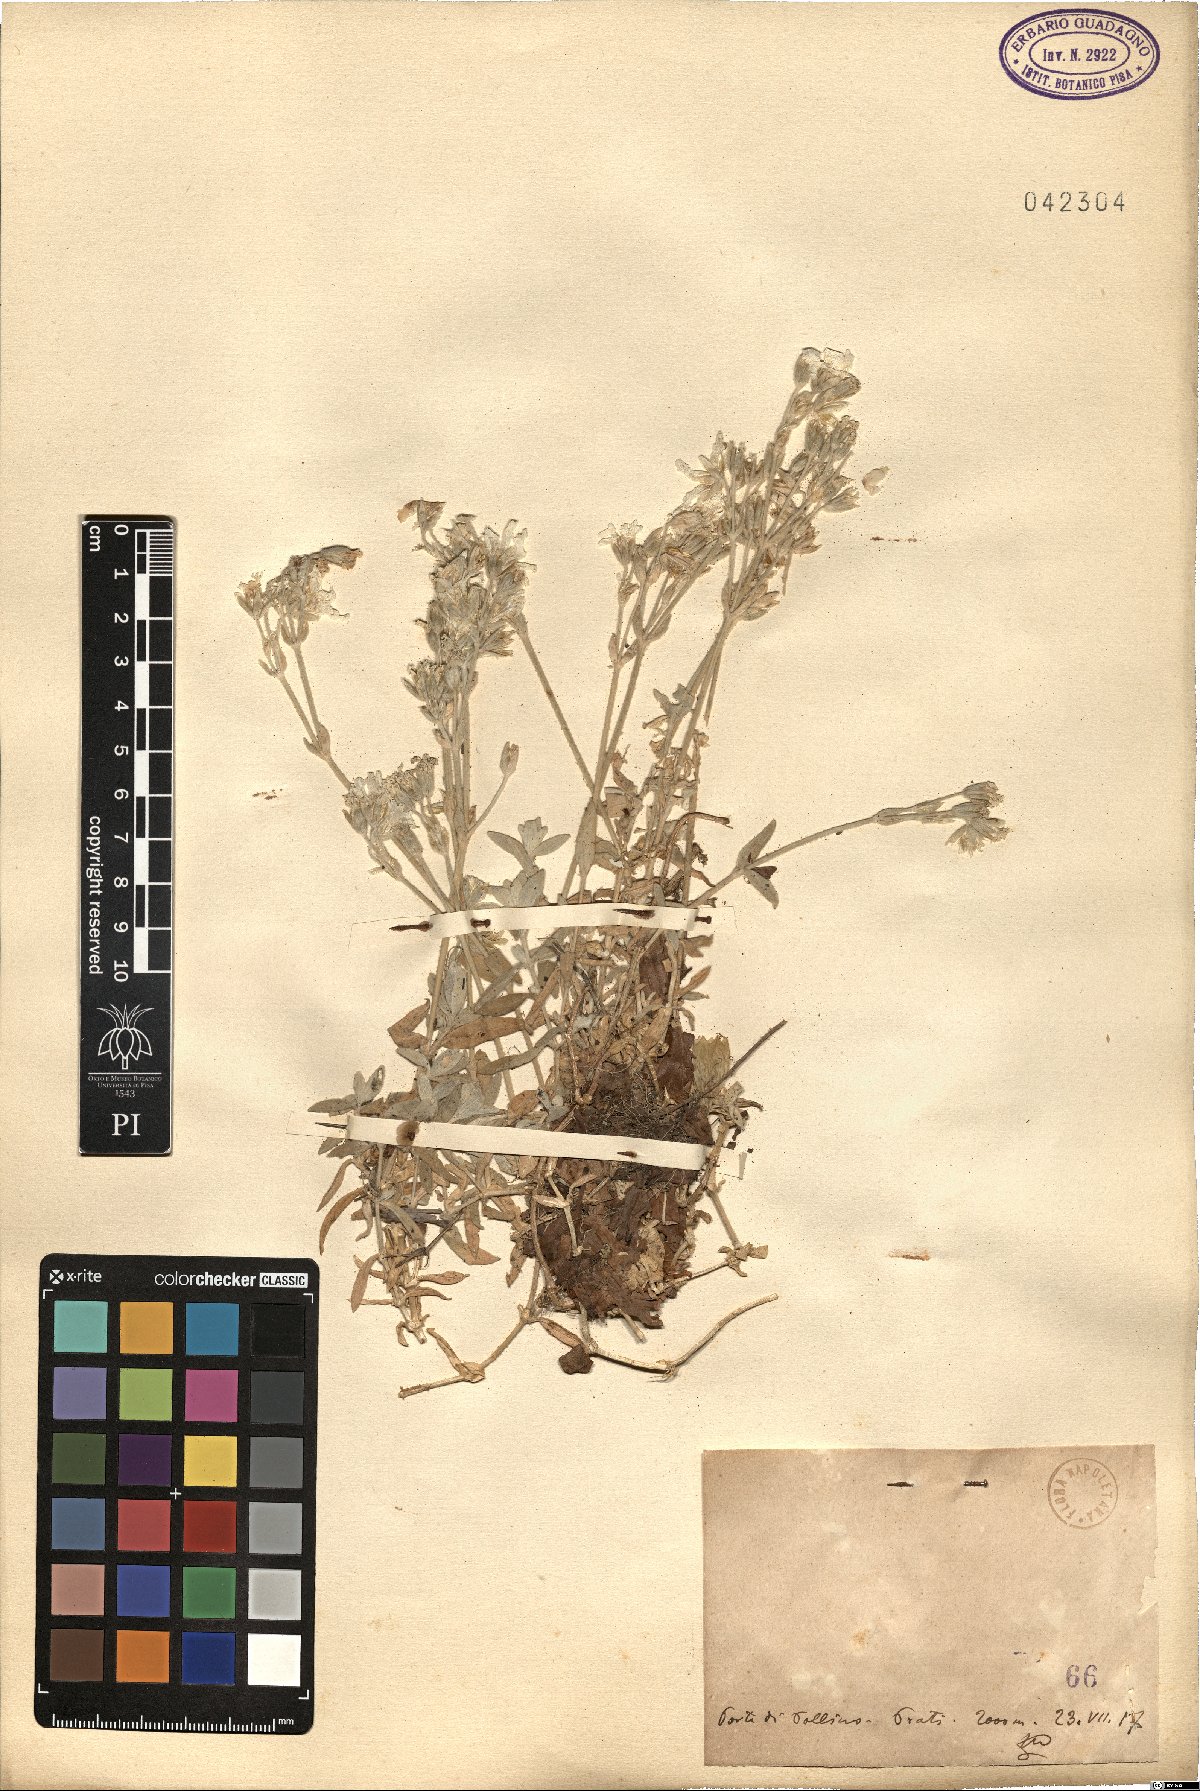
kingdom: Plantae
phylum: Tracheophyta
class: Magnoliopsida
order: Caryophyllales
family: Caryophyllaceae
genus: Cerastium
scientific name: Cerastium
